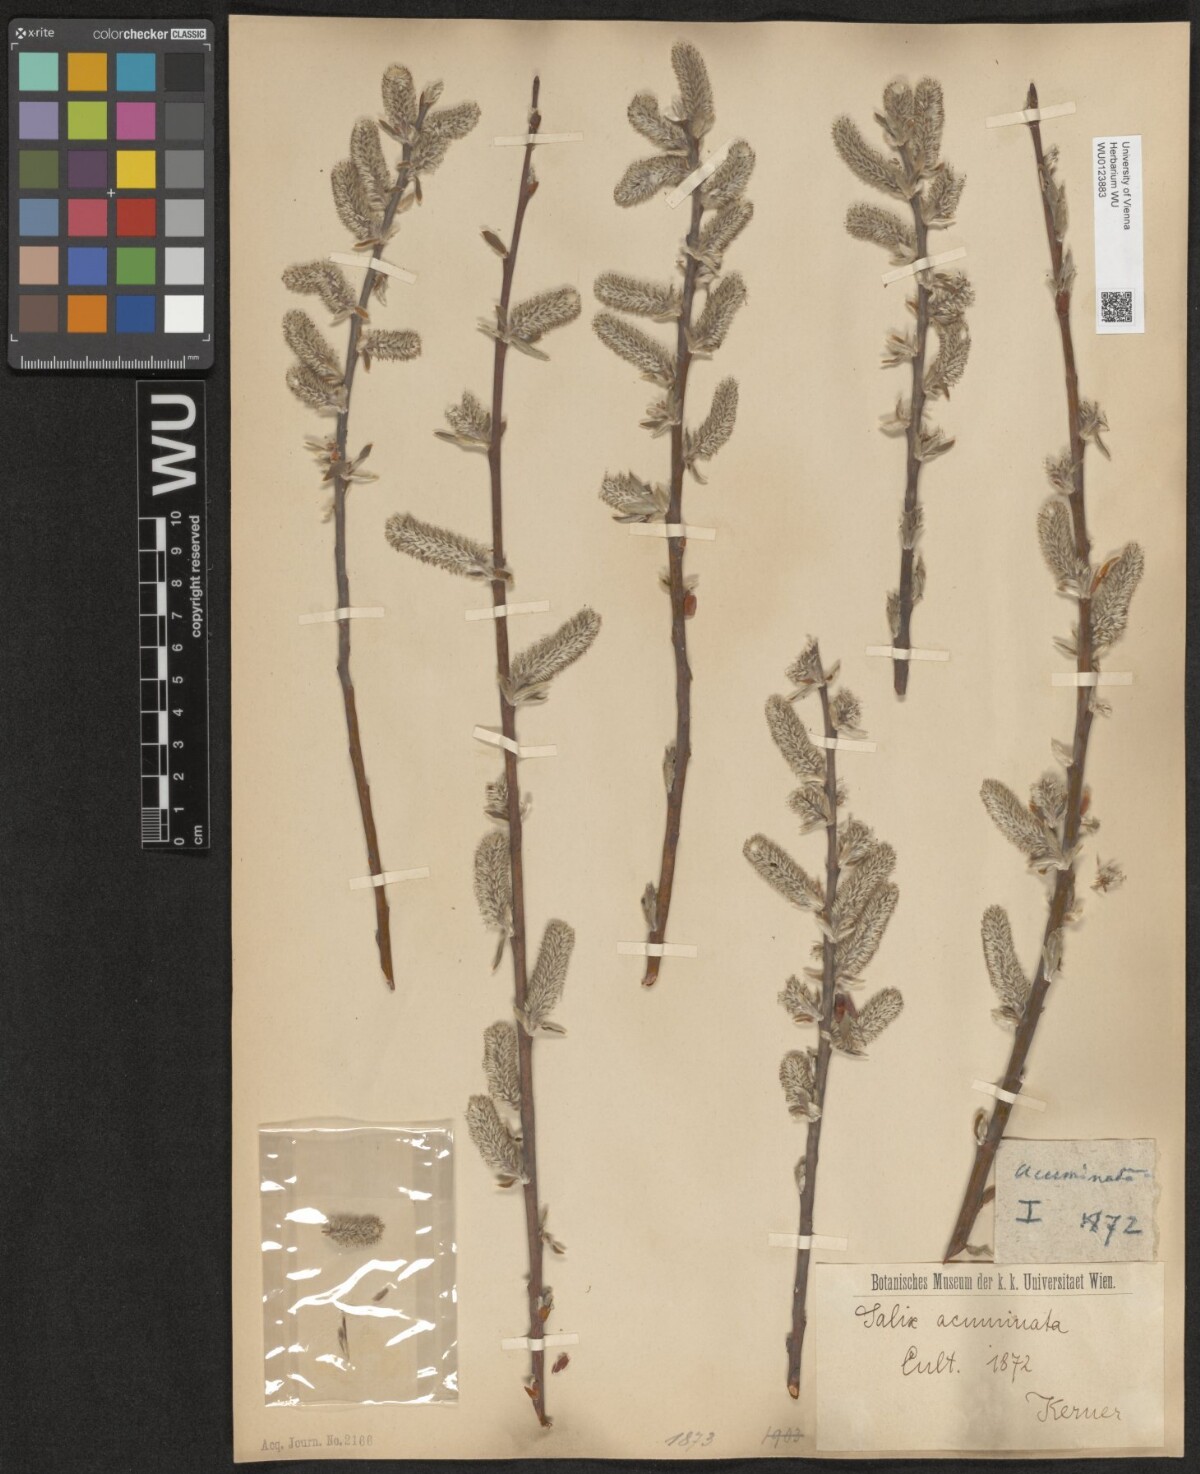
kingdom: Plantae
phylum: Tracheophyta
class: Magnoliopsida
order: Malpighiales
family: Salicaceae
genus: Salix
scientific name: Salix cinerea
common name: Common sallow
